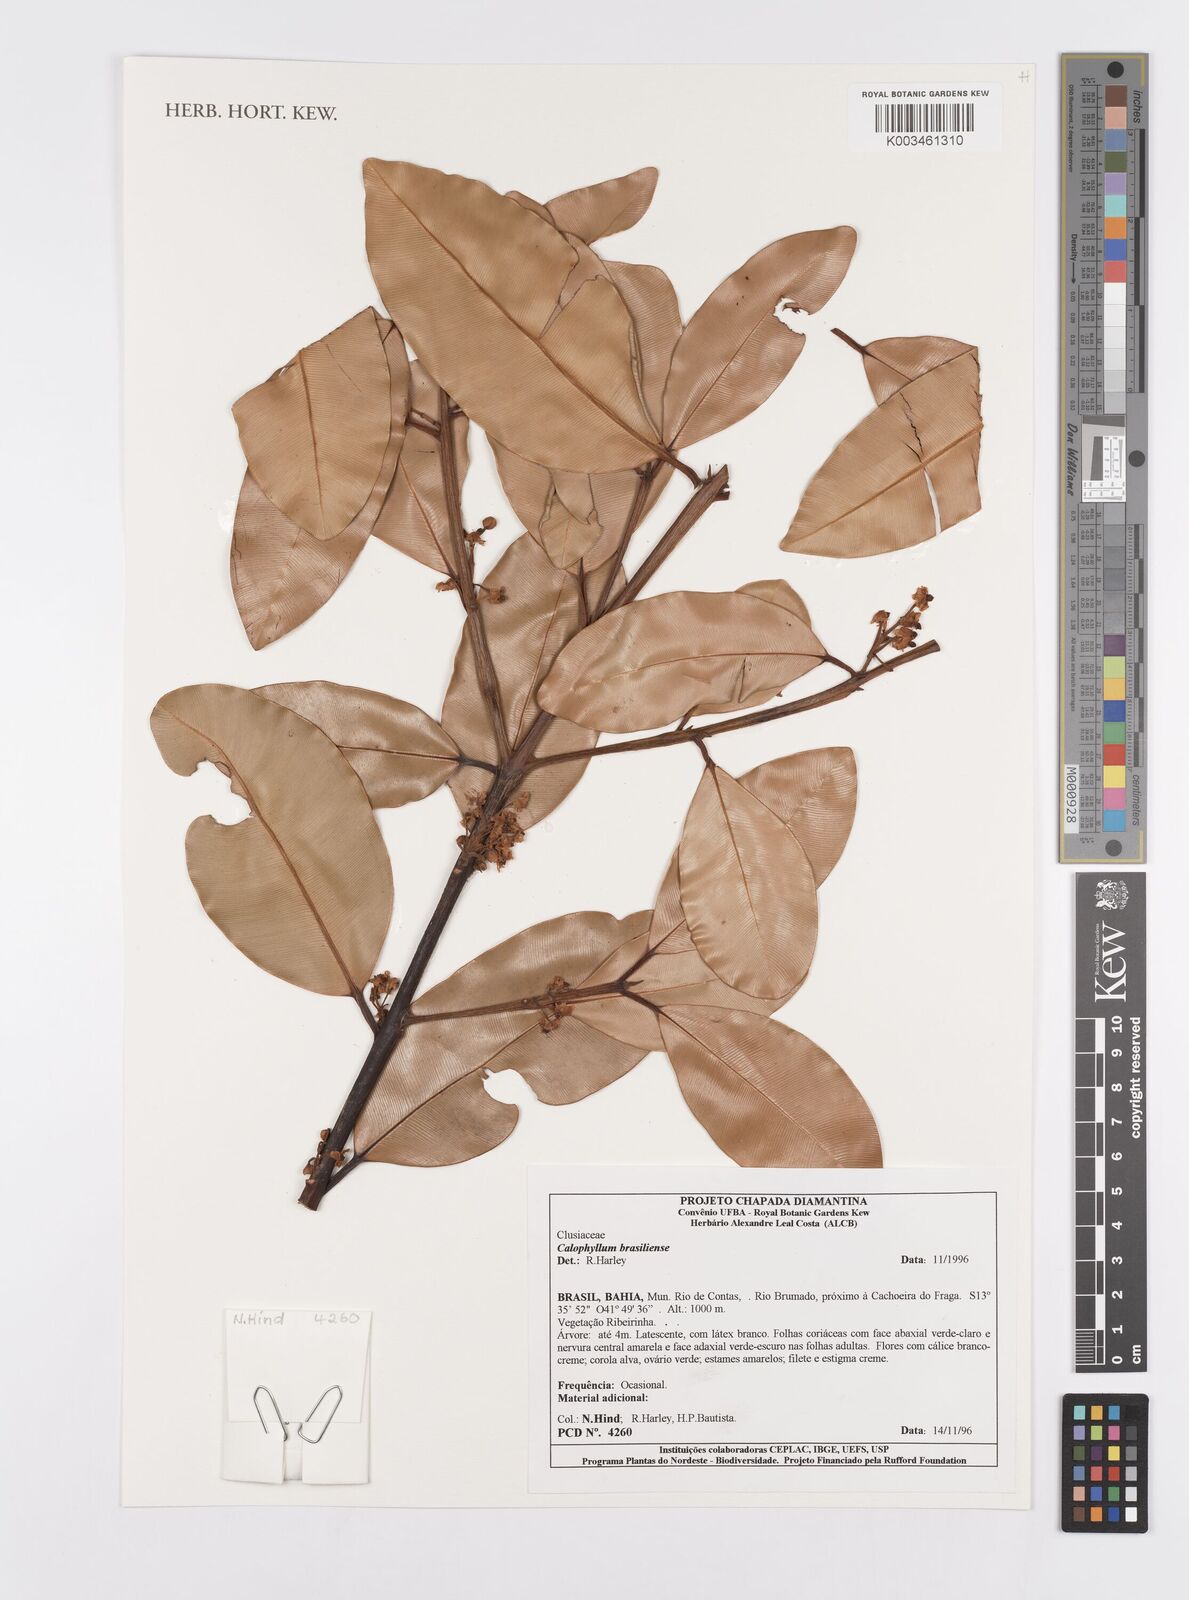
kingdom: Plantae
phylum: Tracheophyta
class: Magnoliopsida
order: Malpighiales
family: Calophyllaceae
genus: Calophyllum
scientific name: Calophyllum brasiliense
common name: Santa maria
